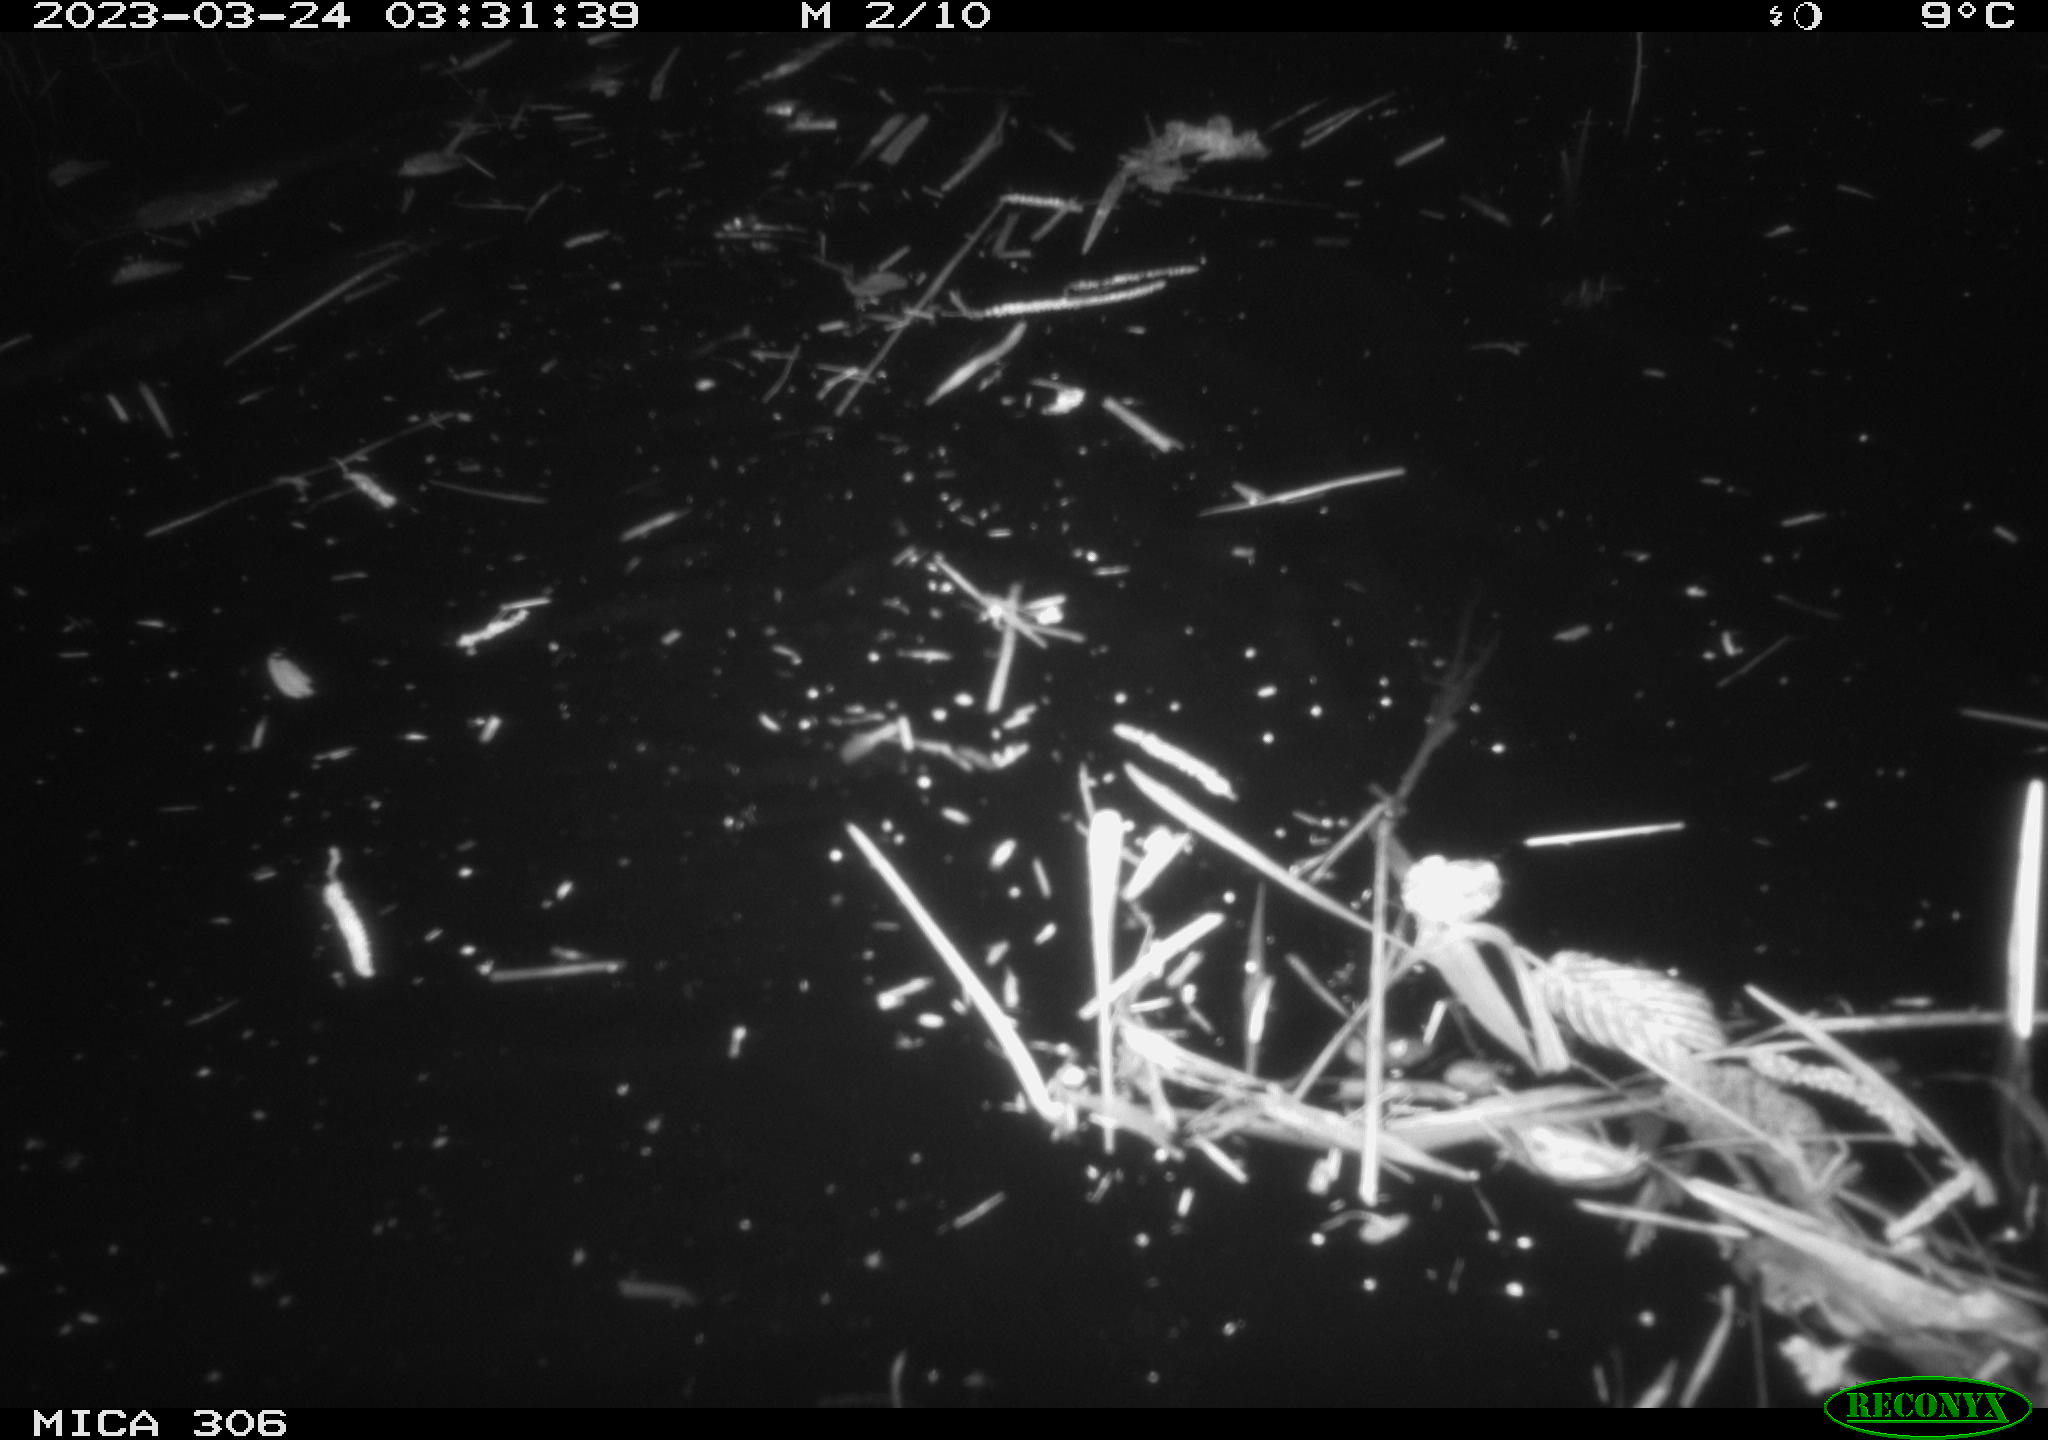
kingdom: Animalia
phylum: Chordata
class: Mammalia
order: Rodentia
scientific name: Rodentia
